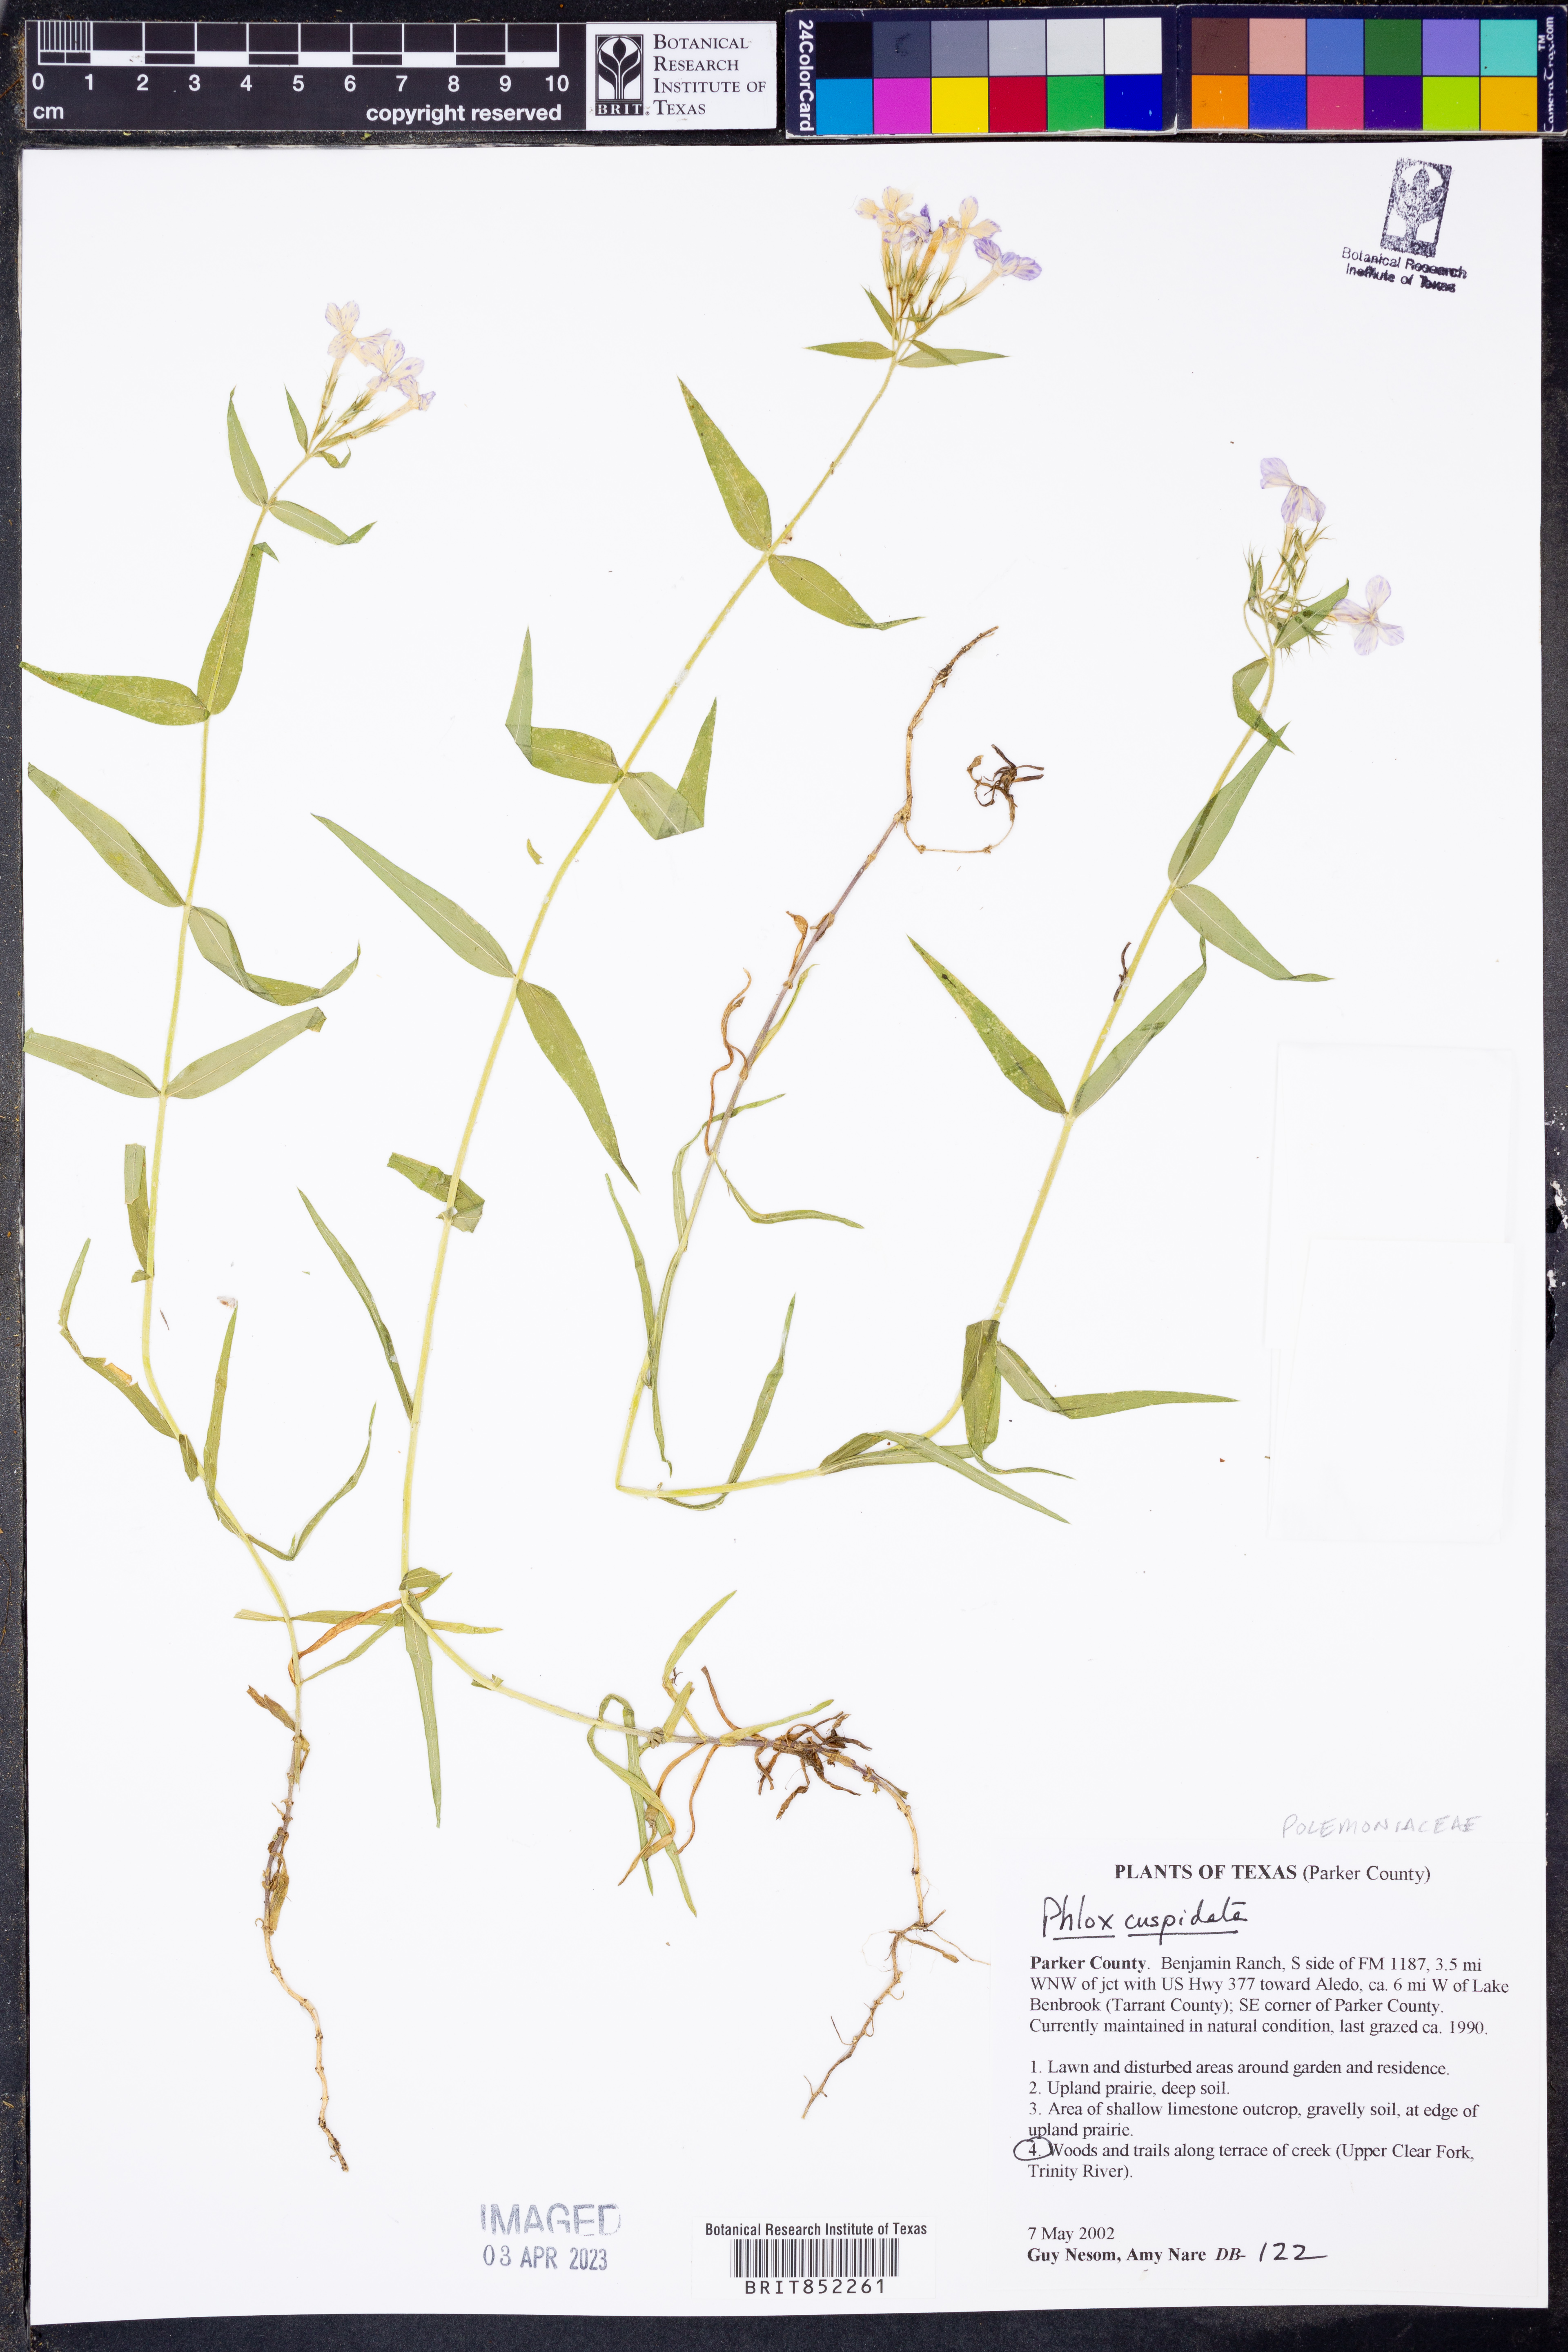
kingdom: Plantae
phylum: Tracheophyta
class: Magnoliopsida
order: Ericales
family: Polemoniaceae
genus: Phlox
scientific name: Phlox cuspidata
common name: Pointed phlox
